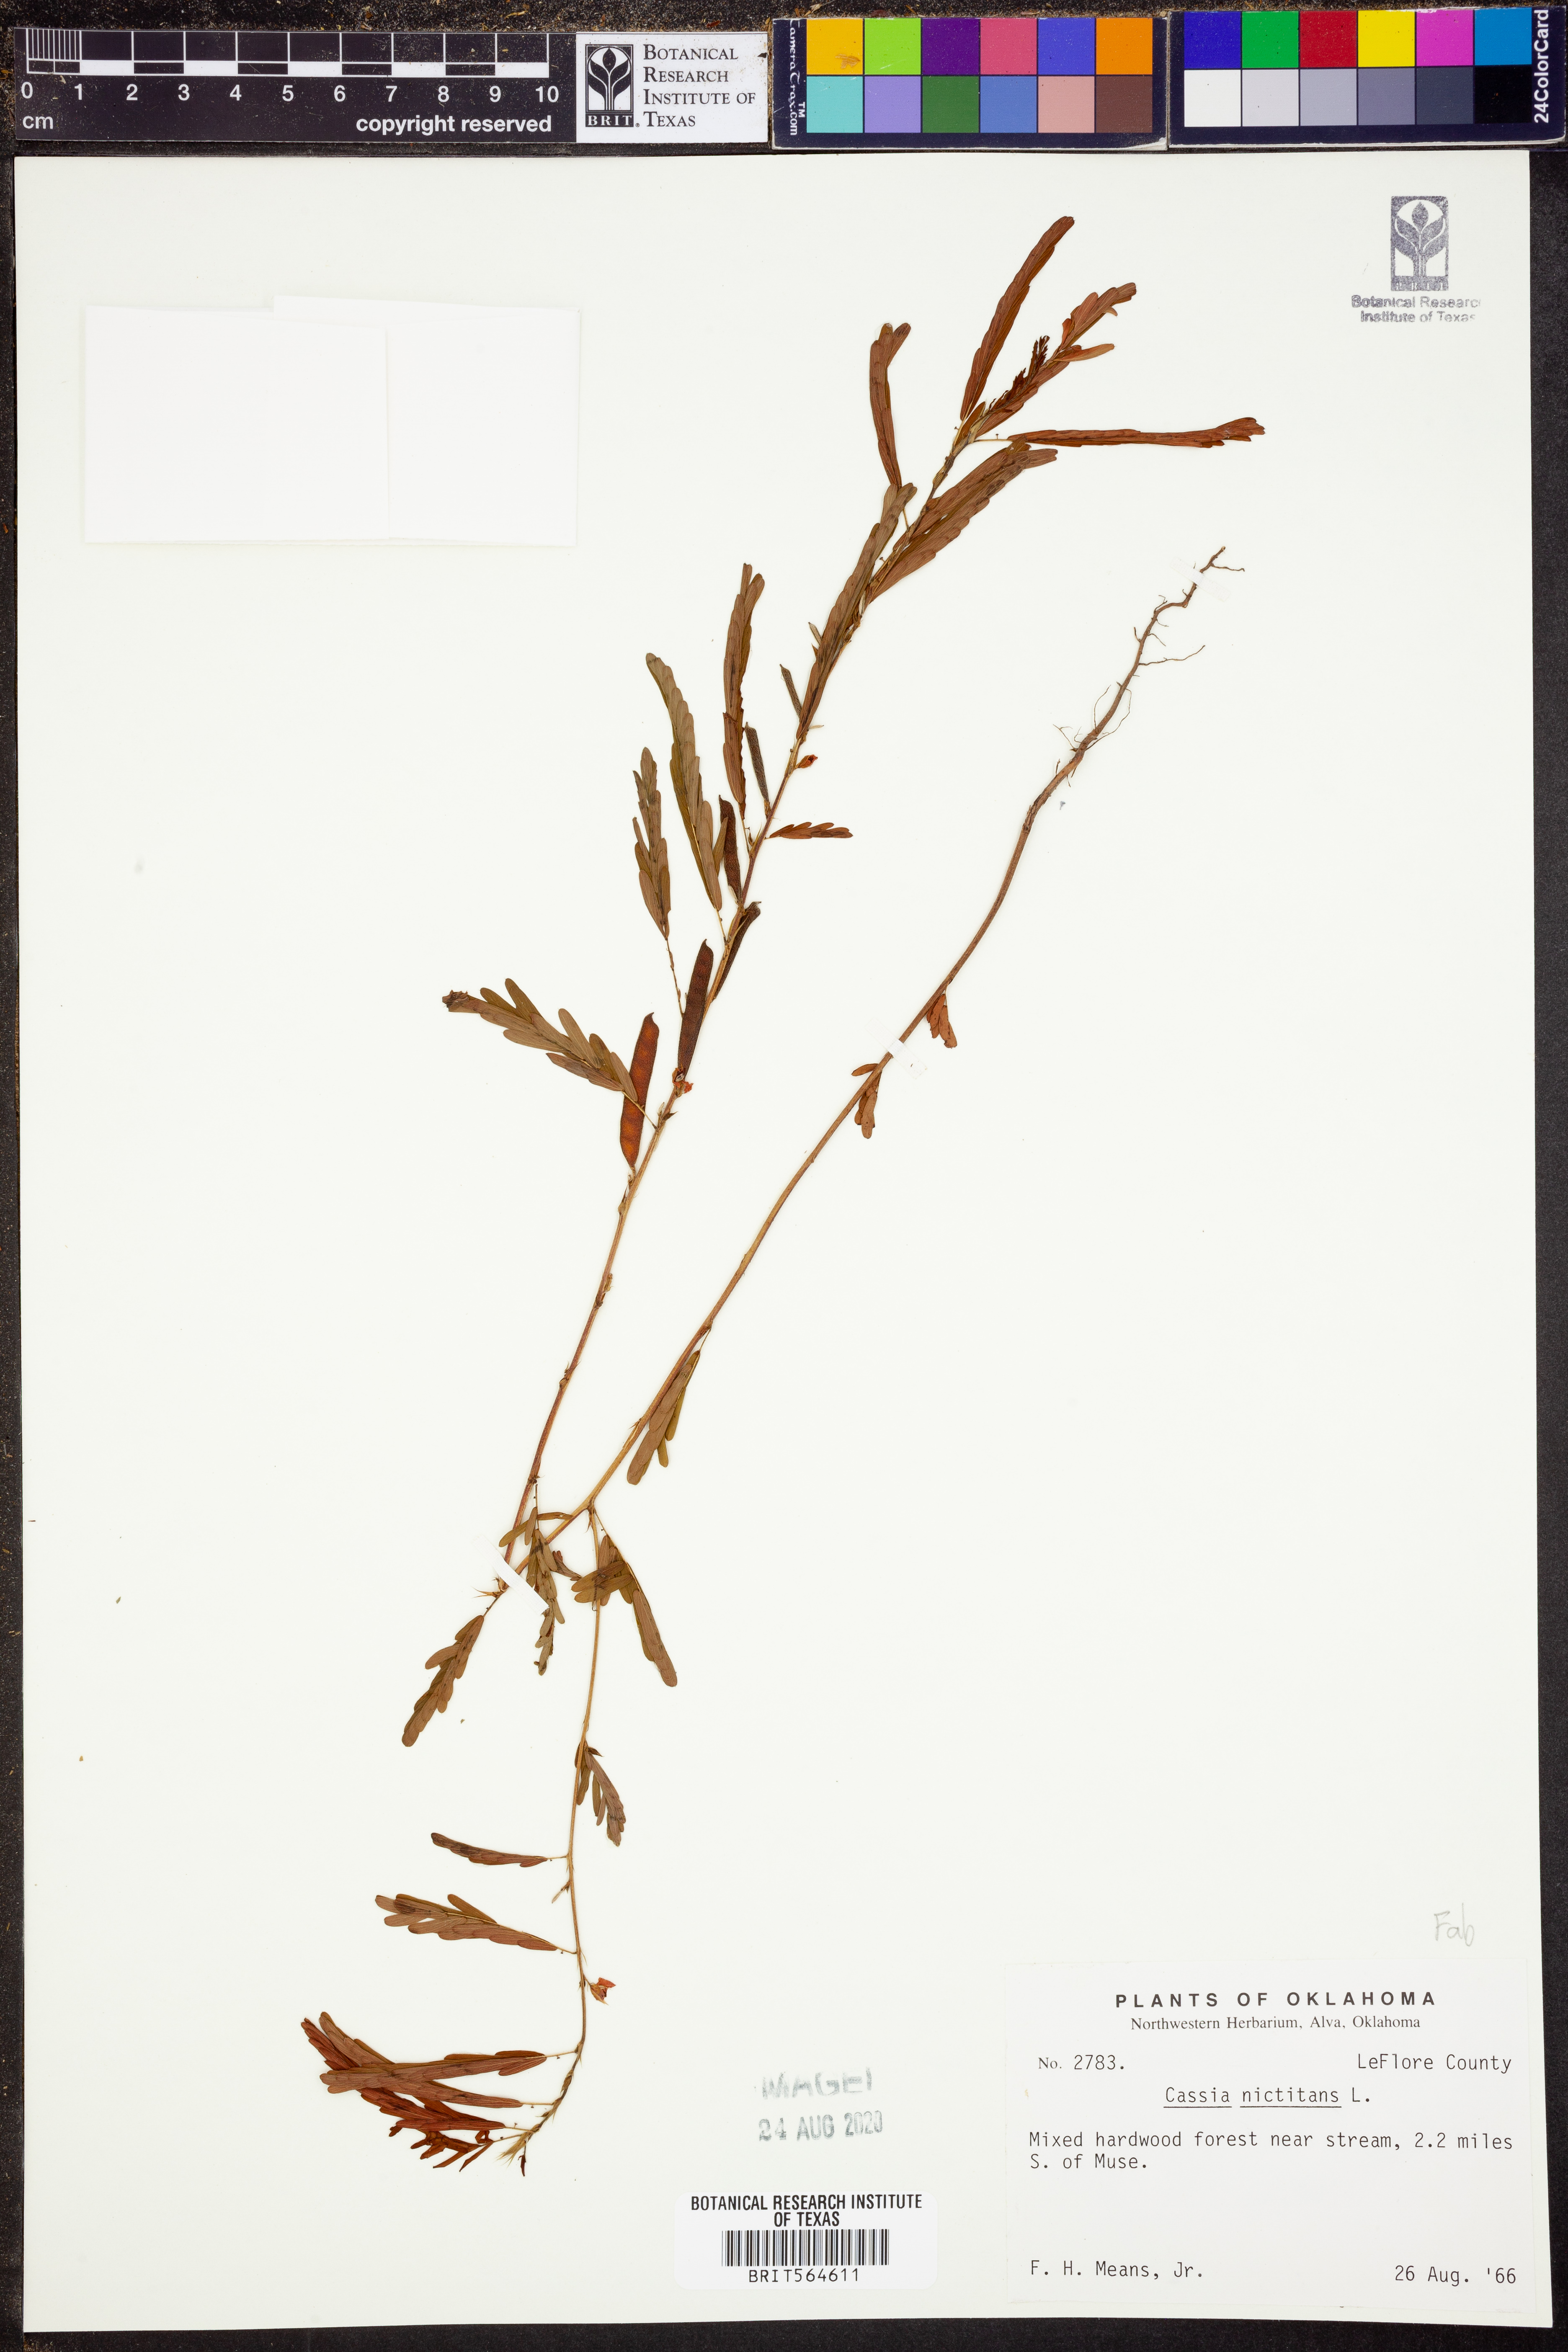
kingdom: Plantae
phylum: Tracheophyta
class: Magnoliopsida
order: Fabales
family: Fabaceae
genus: Chamaecrista
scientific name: Chamaecrista nictitans
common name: Sensitive cassia
